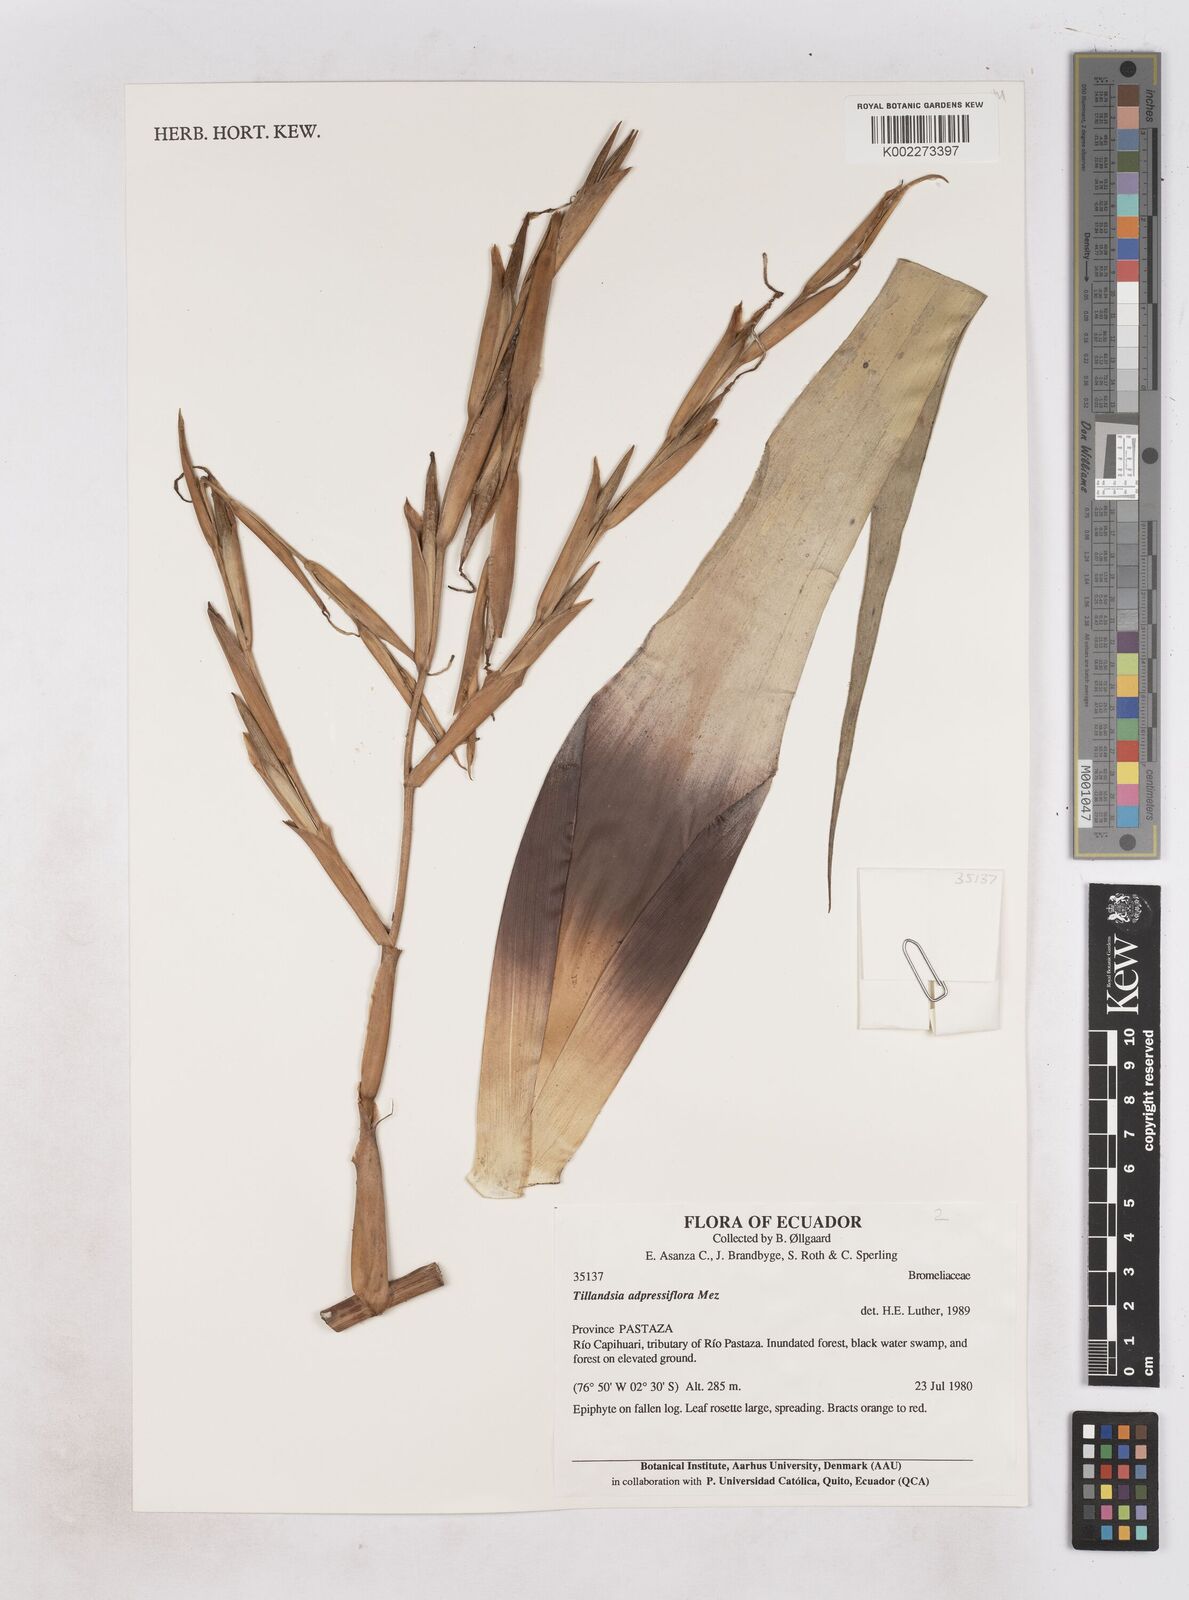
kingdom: Plantae
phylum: Tracheophyta
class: Liliopsida
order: Poales
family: Bromeliaceae
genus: Tillandsia
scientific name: Tillandsia adpressiflora
